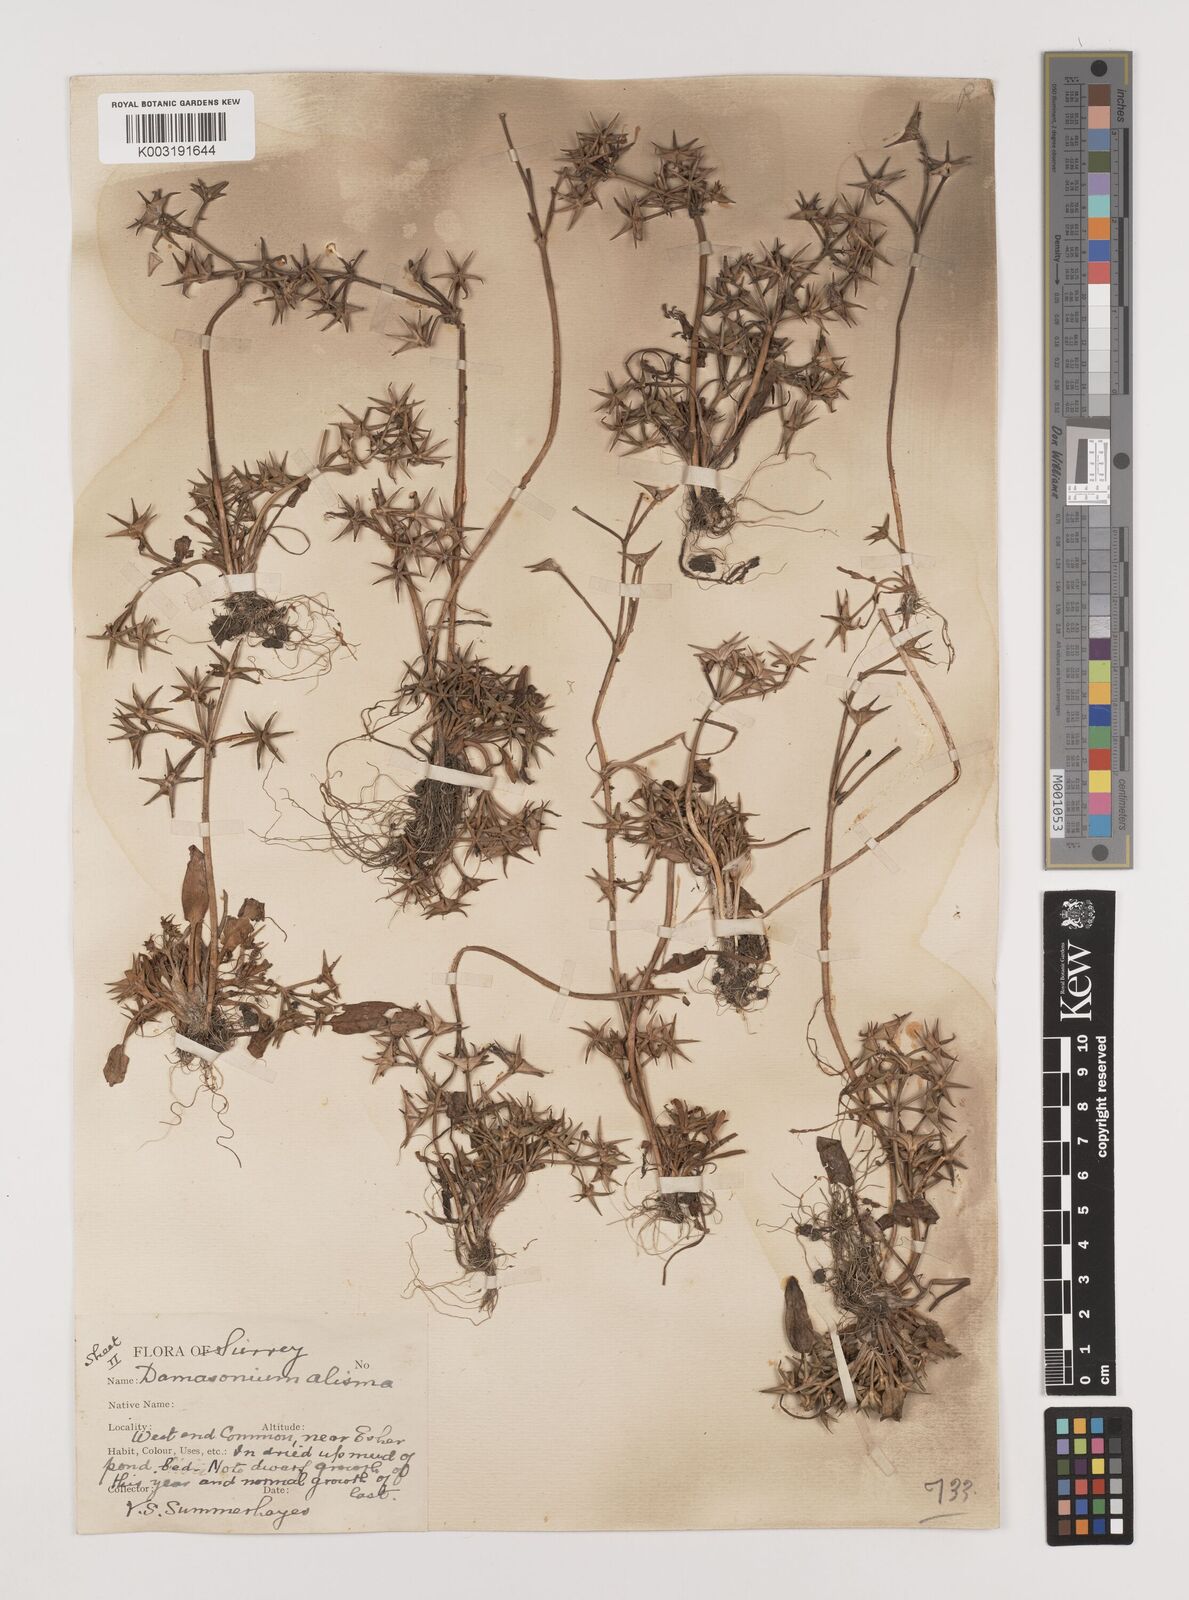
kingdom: Plantae
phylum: Tracheophyta
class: Liliopsida
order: Alismatales
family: Alismataceae
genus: Damasonium
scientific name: Damasonium alisma
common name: Starfruit
